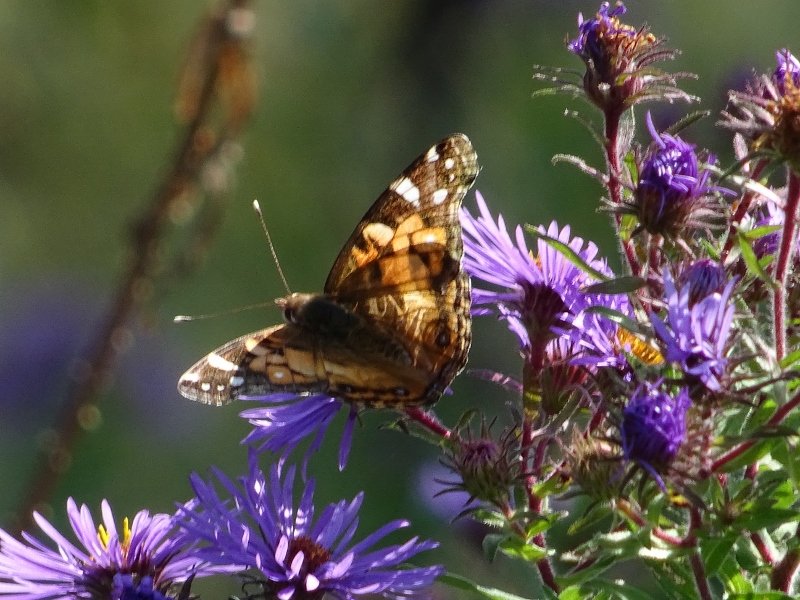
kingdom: Animalia
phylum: Arthropoda
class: Insecta
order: Lepidoptera
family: Nymphalidae
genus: Vanessa
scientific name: Vanessa virginiensis
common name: American Lady
